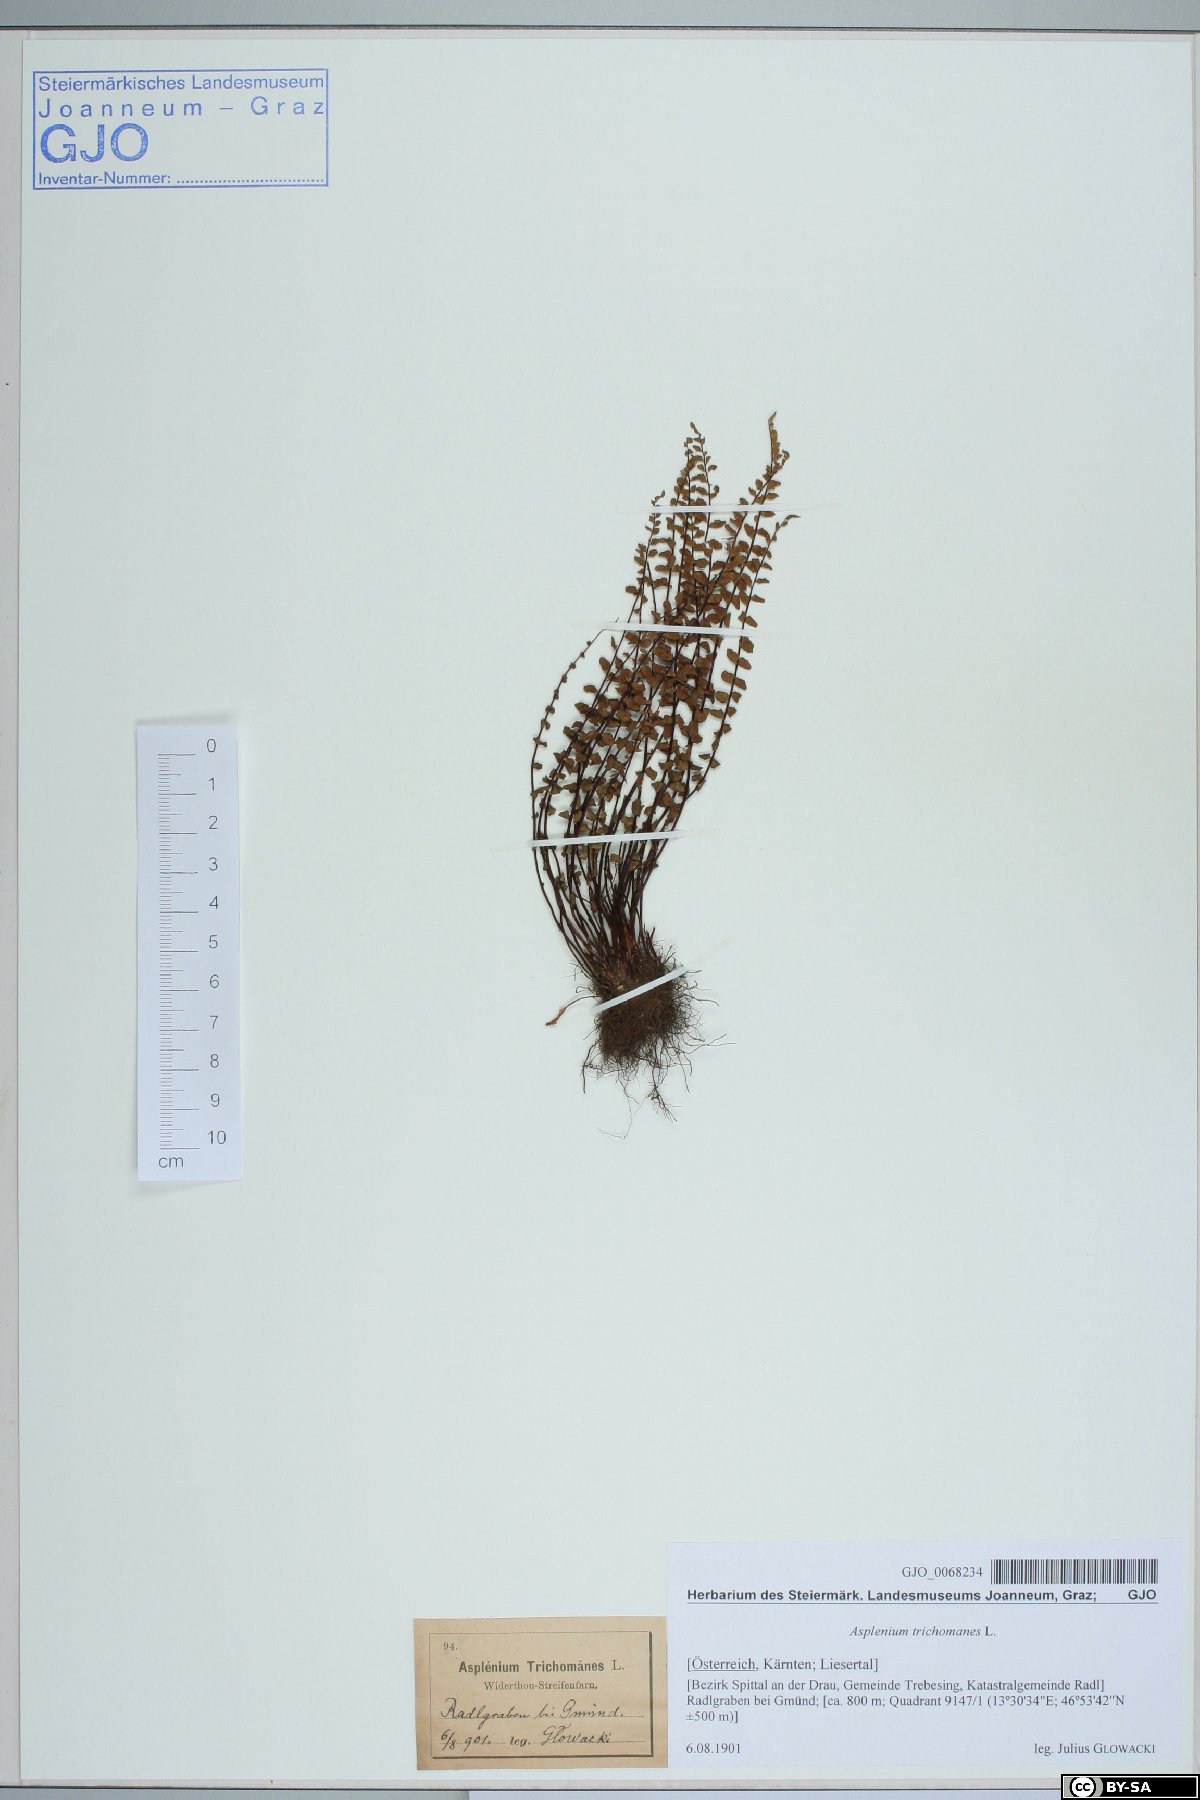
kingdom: Plantae
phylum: Tracheophyta
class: Polypodiopsida
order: Polypodiales
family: Aspleniaceae
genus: Asplenium
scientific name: Asplenium trichomanes
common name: Maidenhair spleenwort
